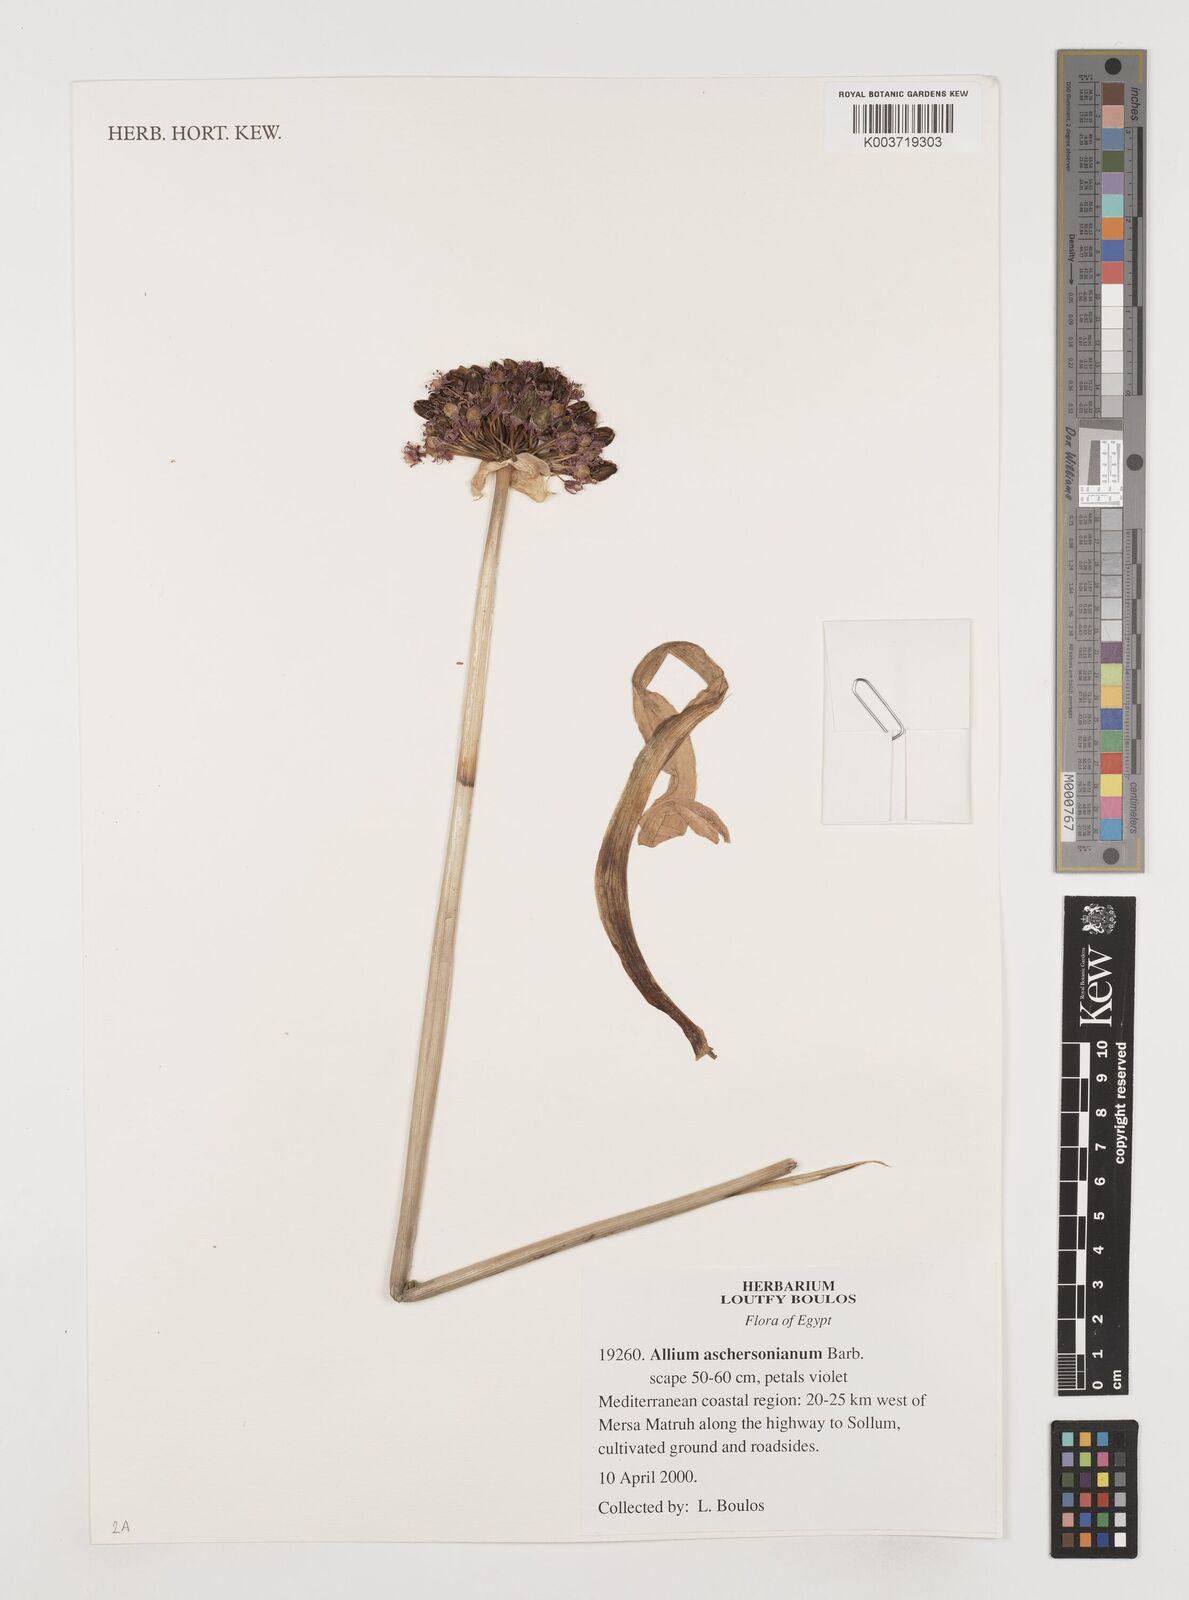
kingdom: Plantae
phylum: Tracheophyta
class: Liliopsida
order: Asparagales
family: Amaryllidaceae
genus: Allium
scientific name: Allium aschersonianum
